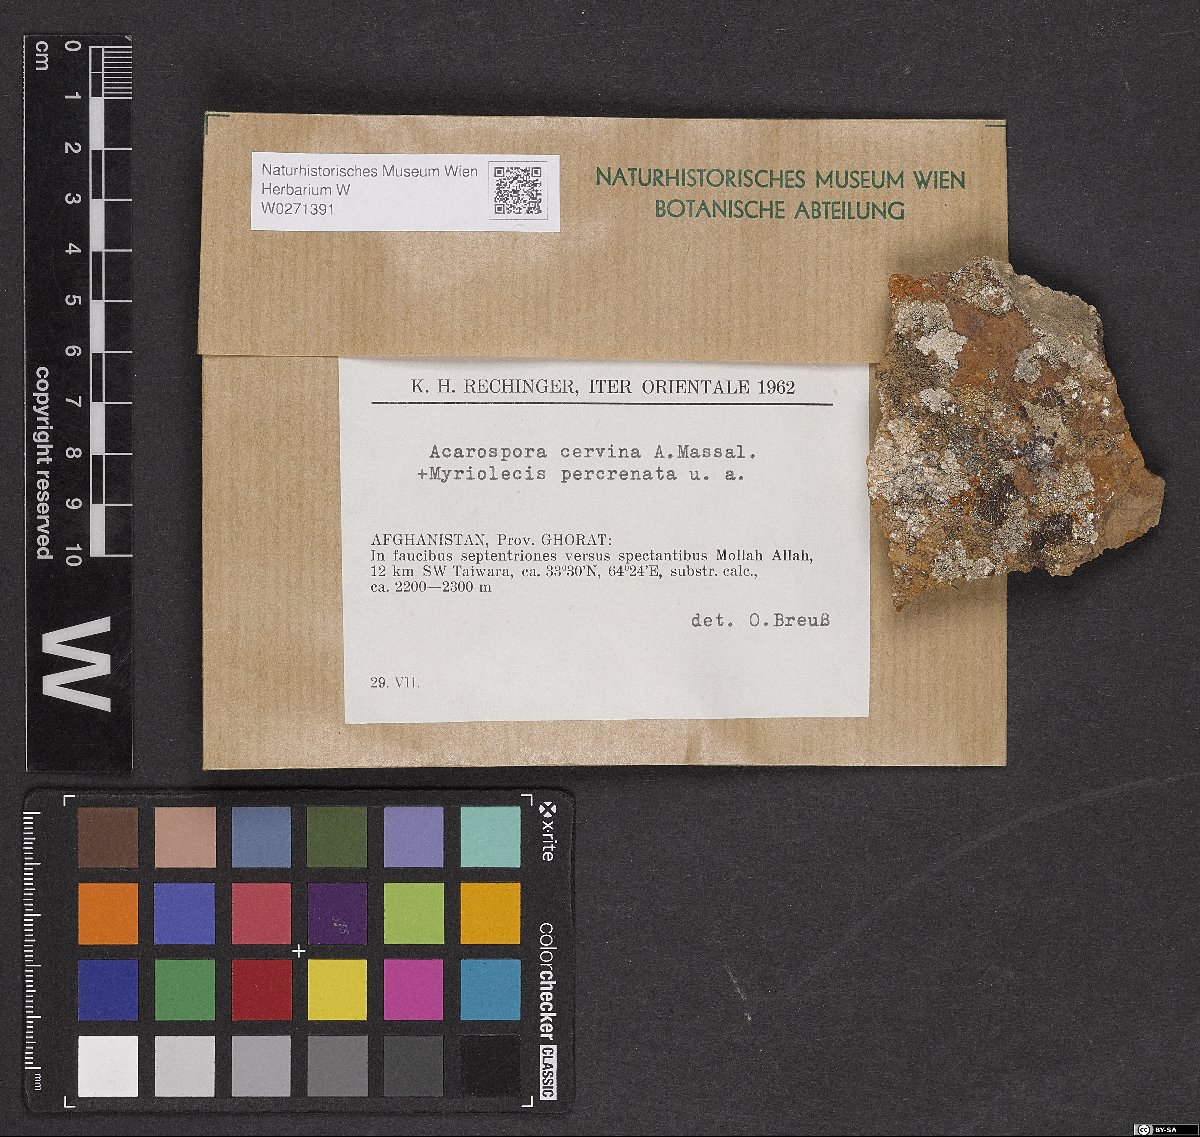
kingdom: Fungi
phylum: Ascomycota
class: Lecanoromycetes
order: Acarosporales
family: Acarosporaceae
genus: Acarospora
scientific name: Acarospora cervina
